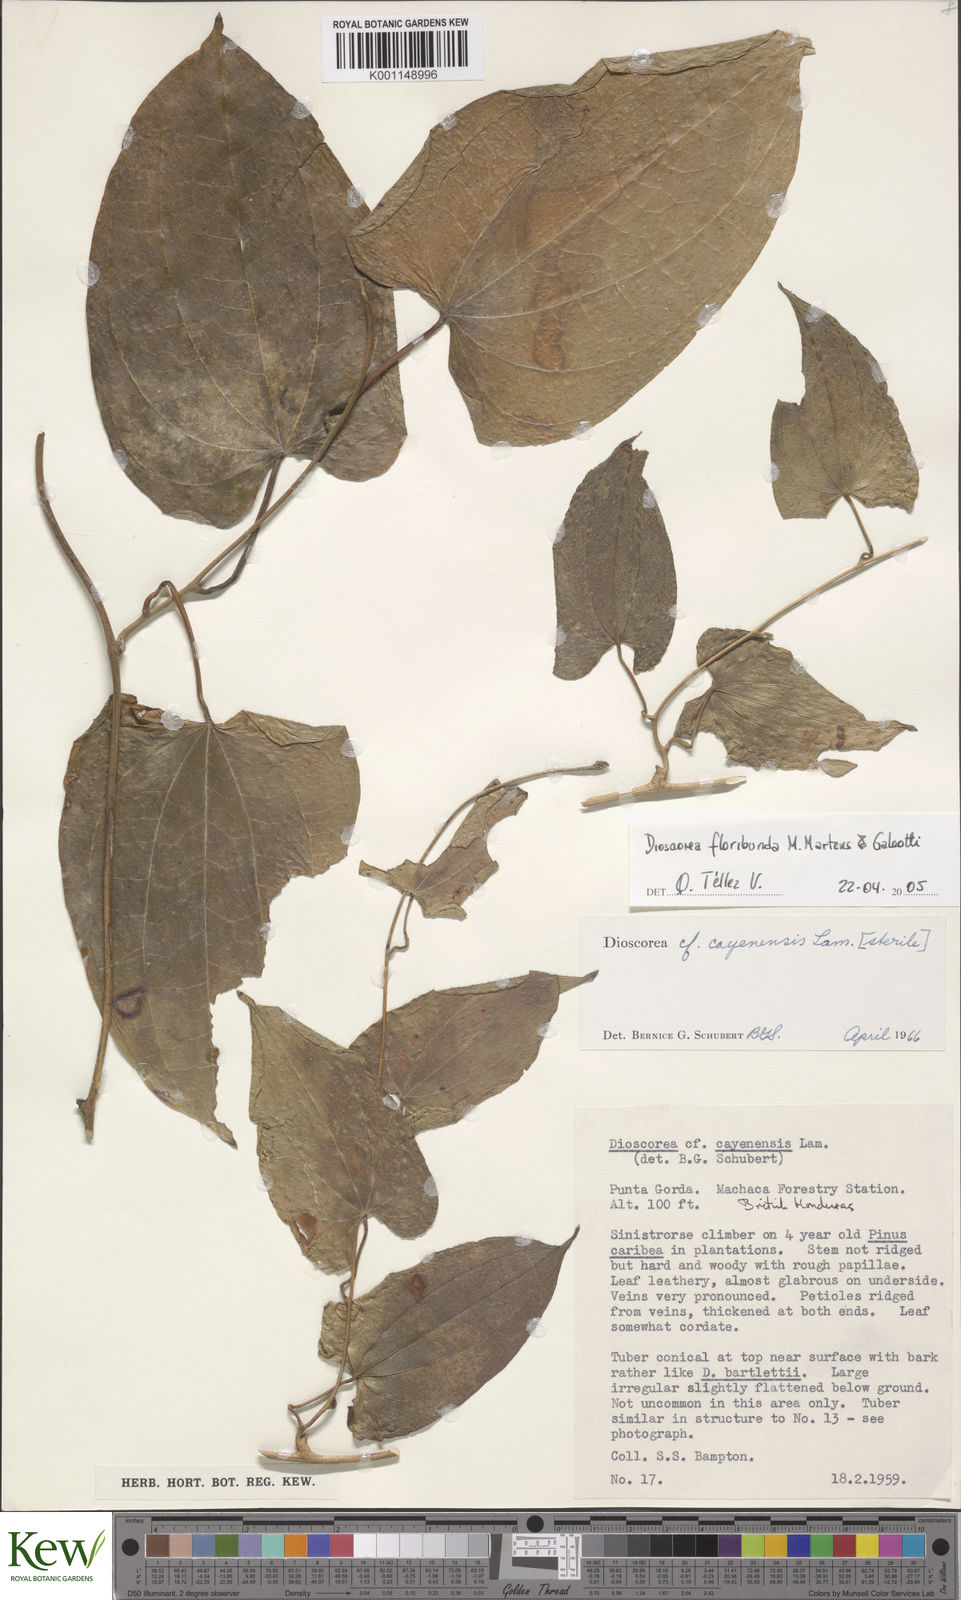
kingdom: Plantae
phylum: Tracheophyta
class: Liliopsida
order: Dioscoreales
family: Dioscoreaceae
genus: Dioscorea
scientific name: Dioscorea floribunda
